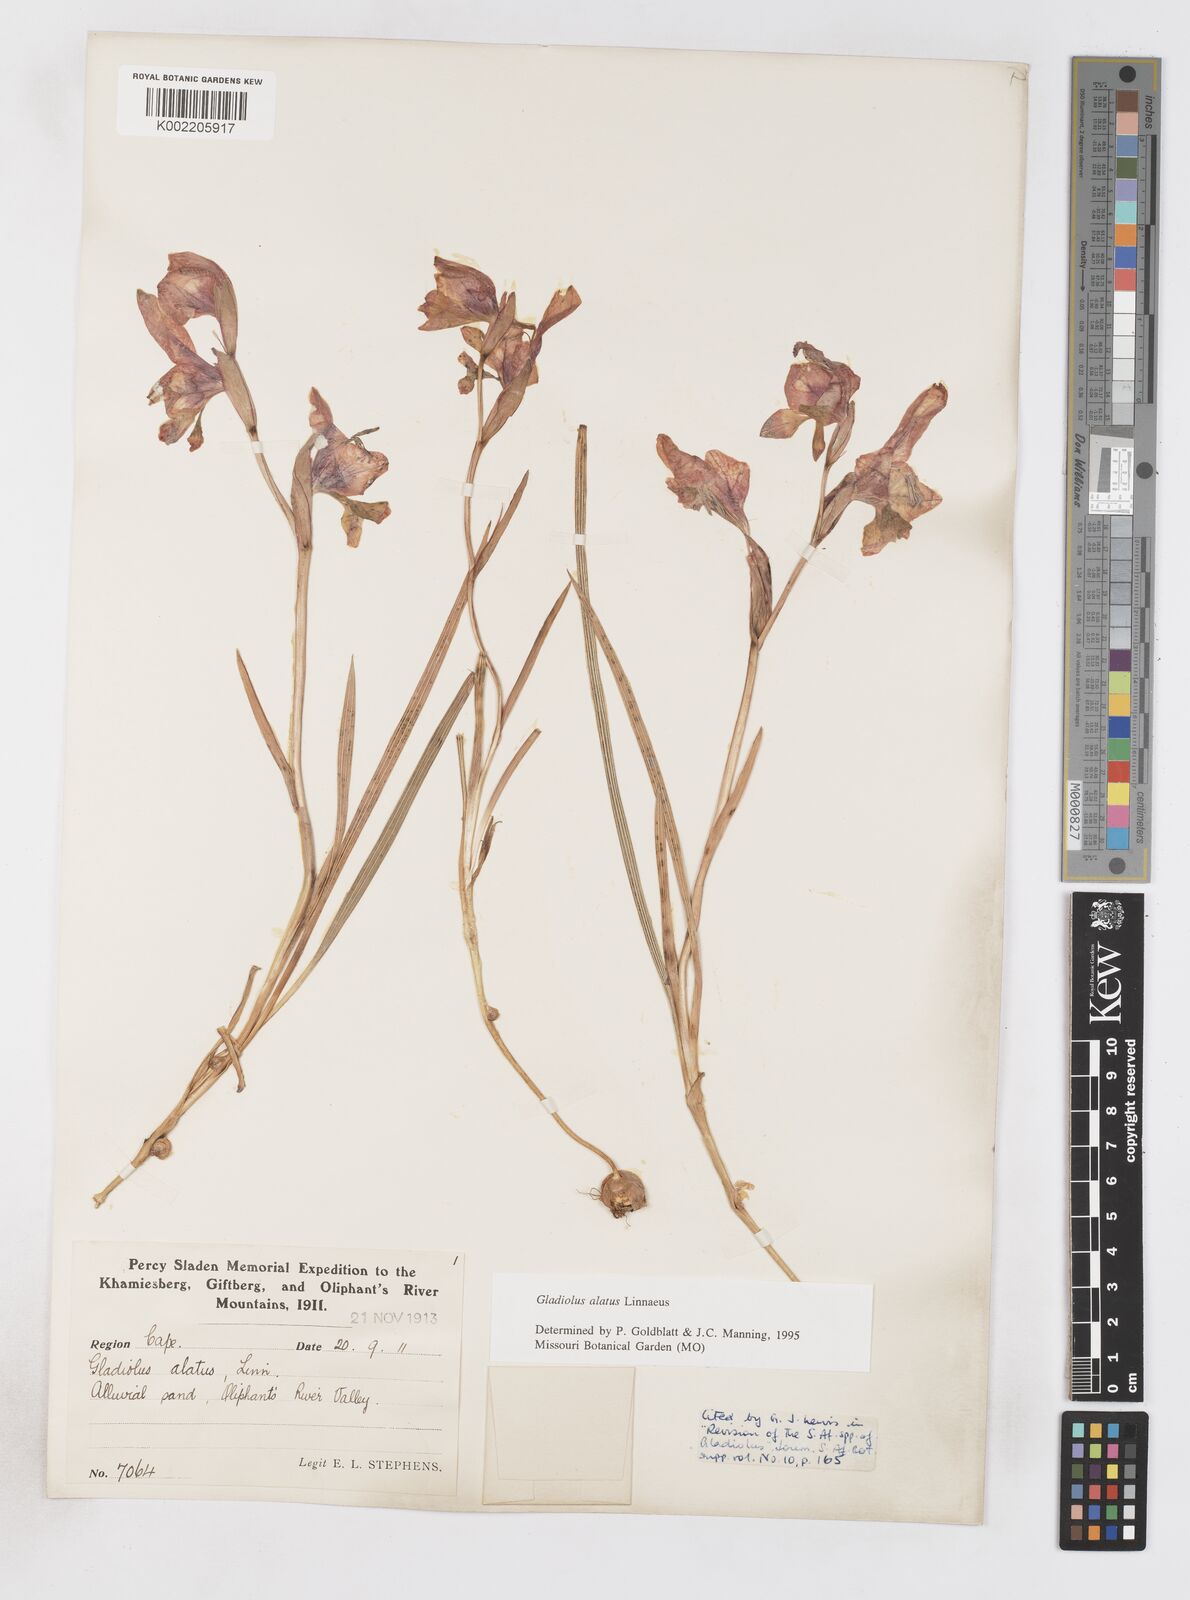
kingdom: Plantae
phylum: Tracheophyta
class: Liliopsida
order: Asparagales
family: Iridaceae
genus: Gladiolus
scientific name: Gladiolus alatus
